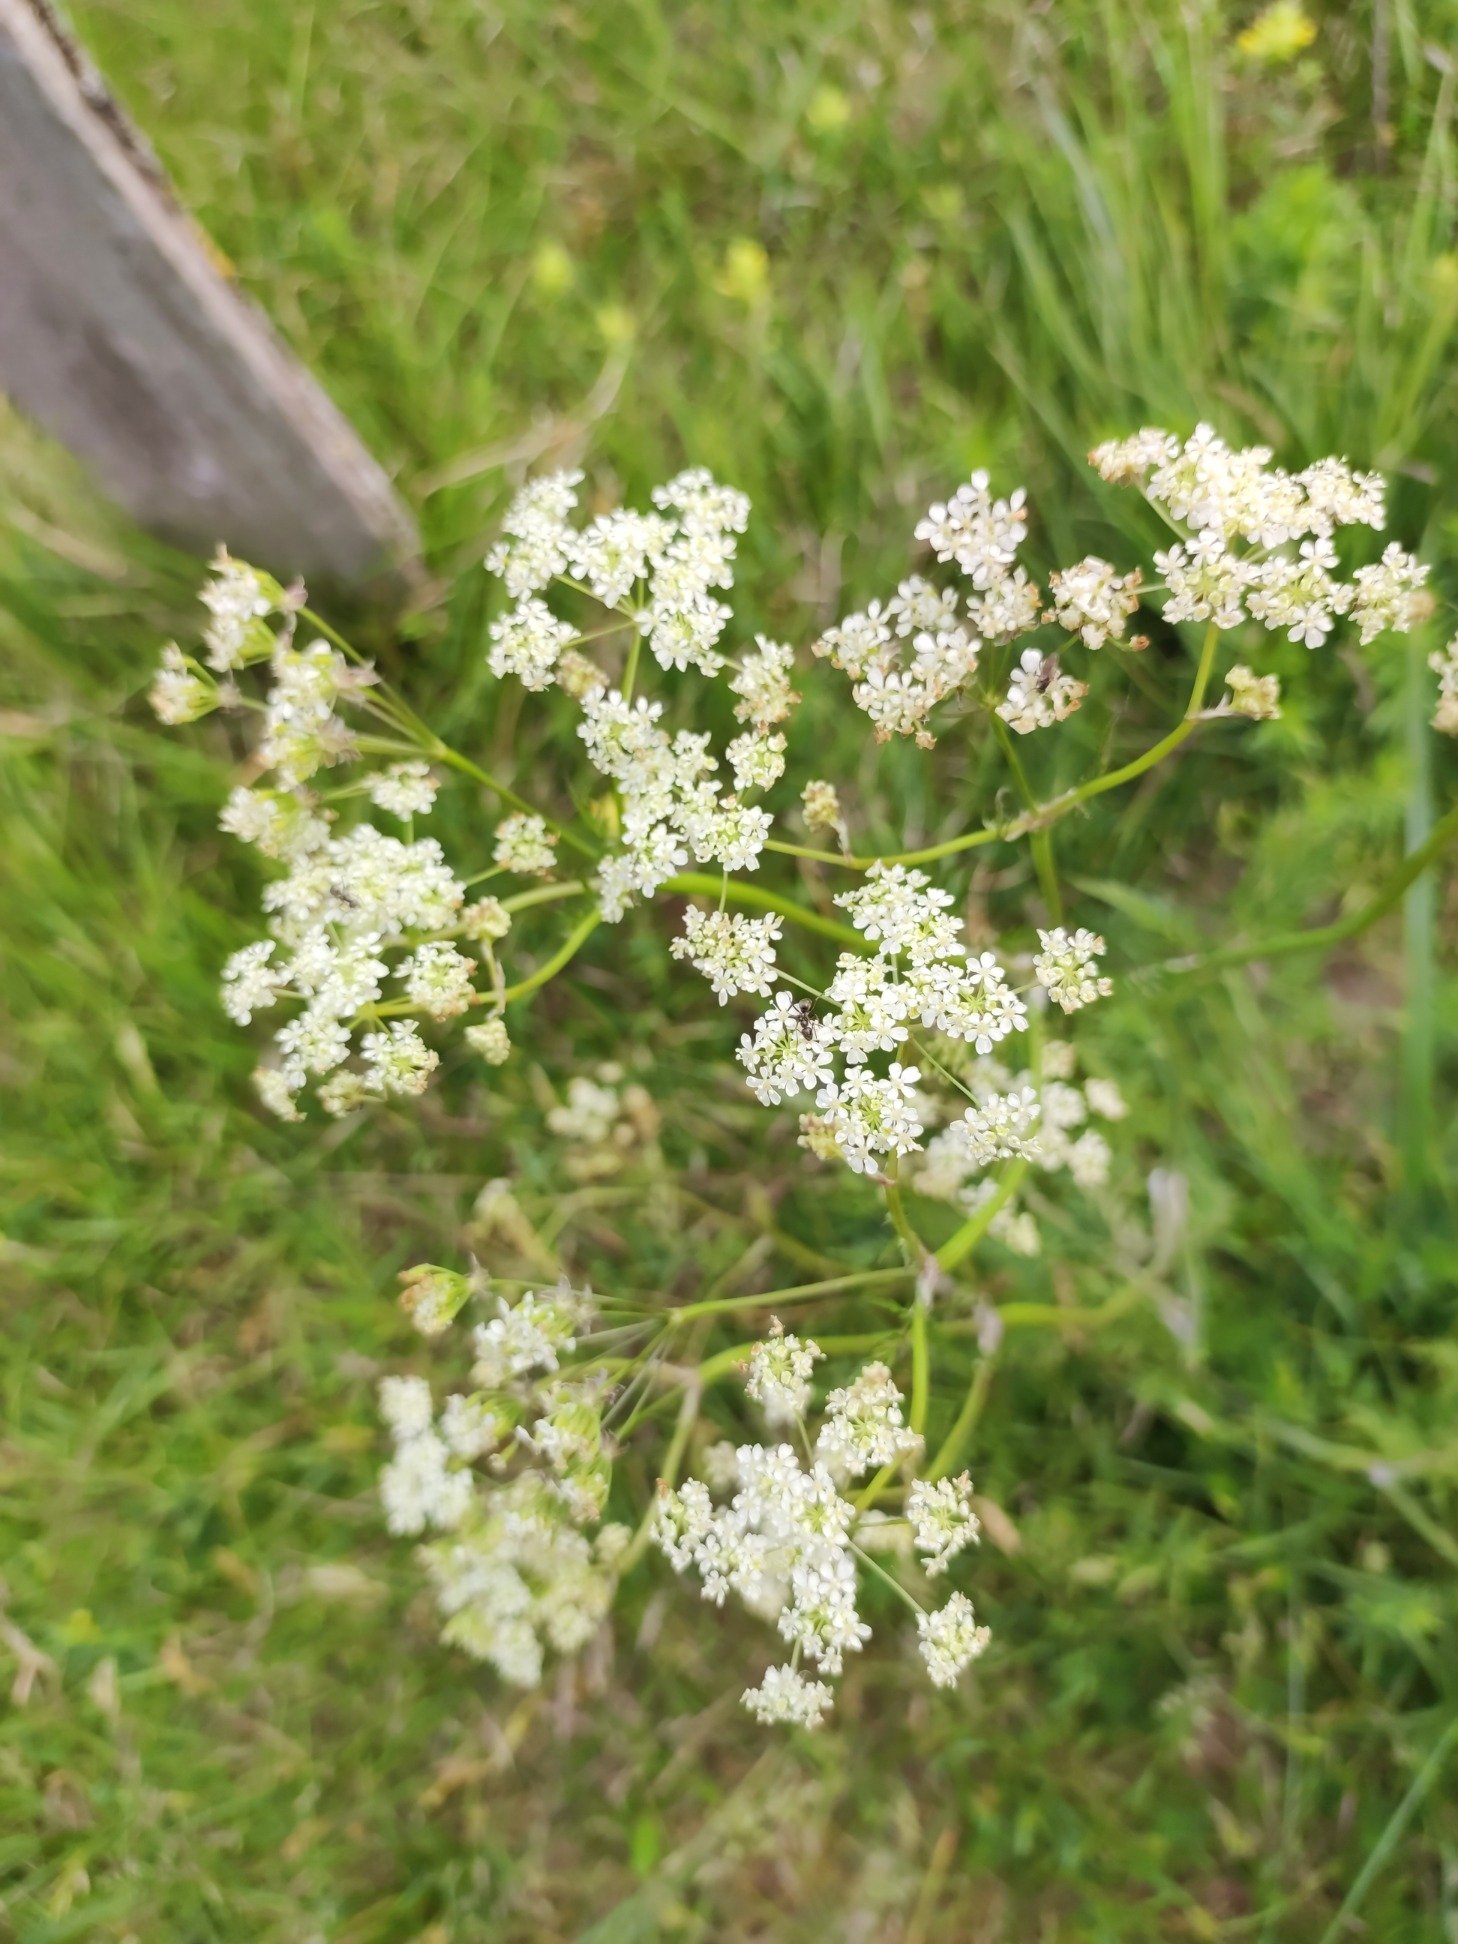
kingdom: Plantae
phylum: Tracheophyta
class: Magnoliopsida
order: Apiales
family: Apiaceae
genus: Anthriscus
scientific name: Anthriscus sylvestris
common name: Vild kørvel
